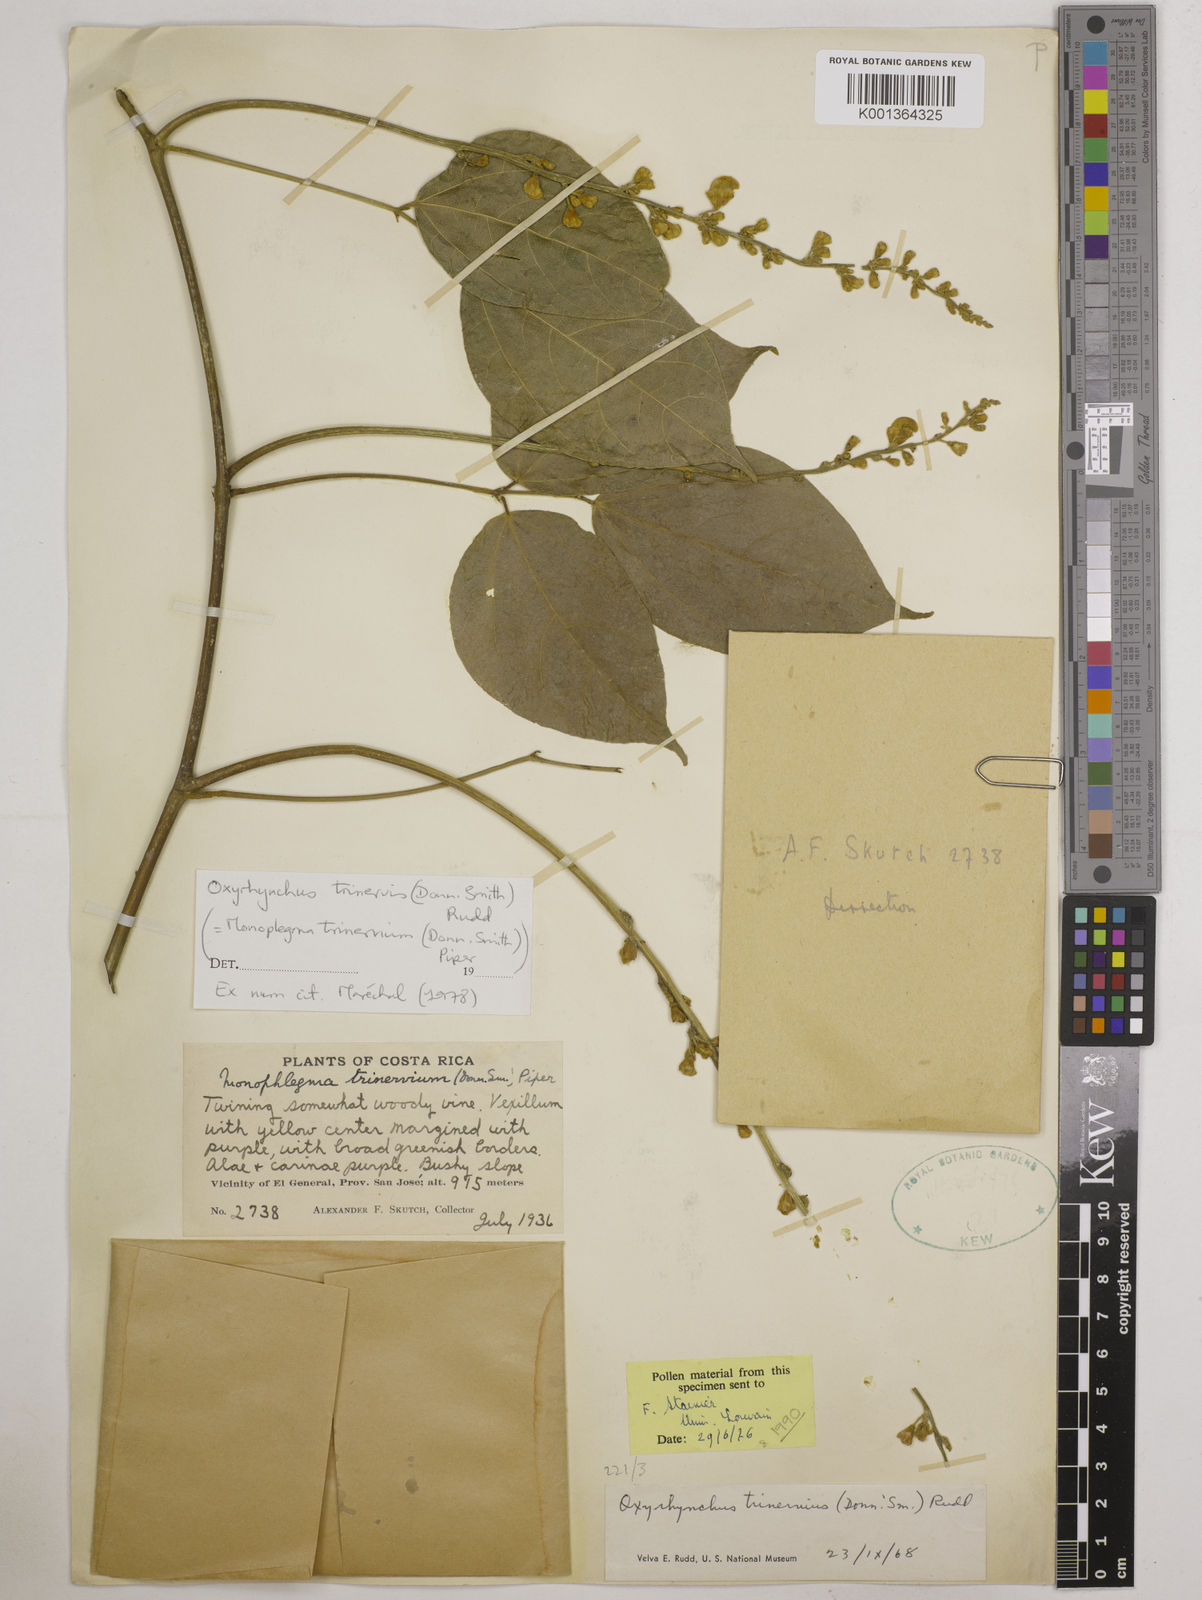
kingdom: Plantae
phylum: Tracheophyta
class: Magnoliopsida
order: Fabales
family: Fabaceae
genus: Oxyrhynchus
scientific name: Oxyrhynchus trinervius
